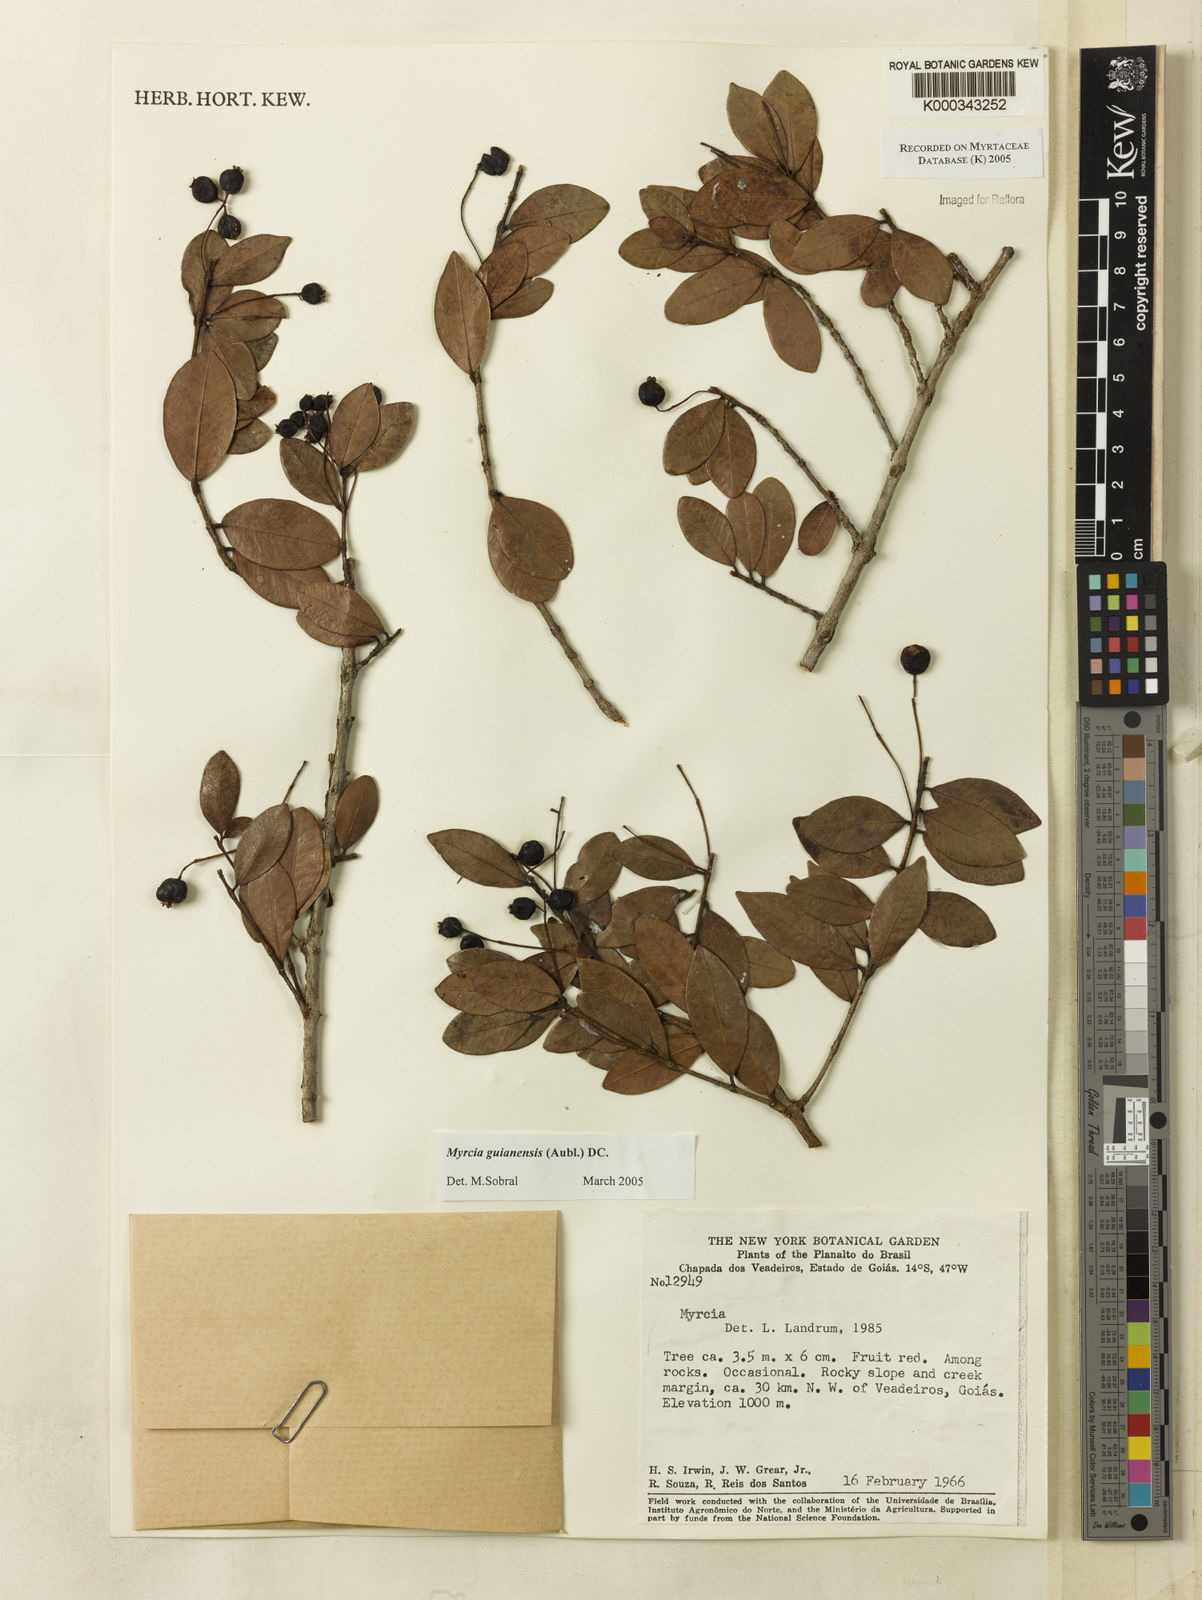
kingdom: Plantae
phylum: Tracheophyta
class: Magnoliopsida
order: Myrtales
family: Myrtaceae
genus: Myrcia
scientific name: Myrcia guianensis
